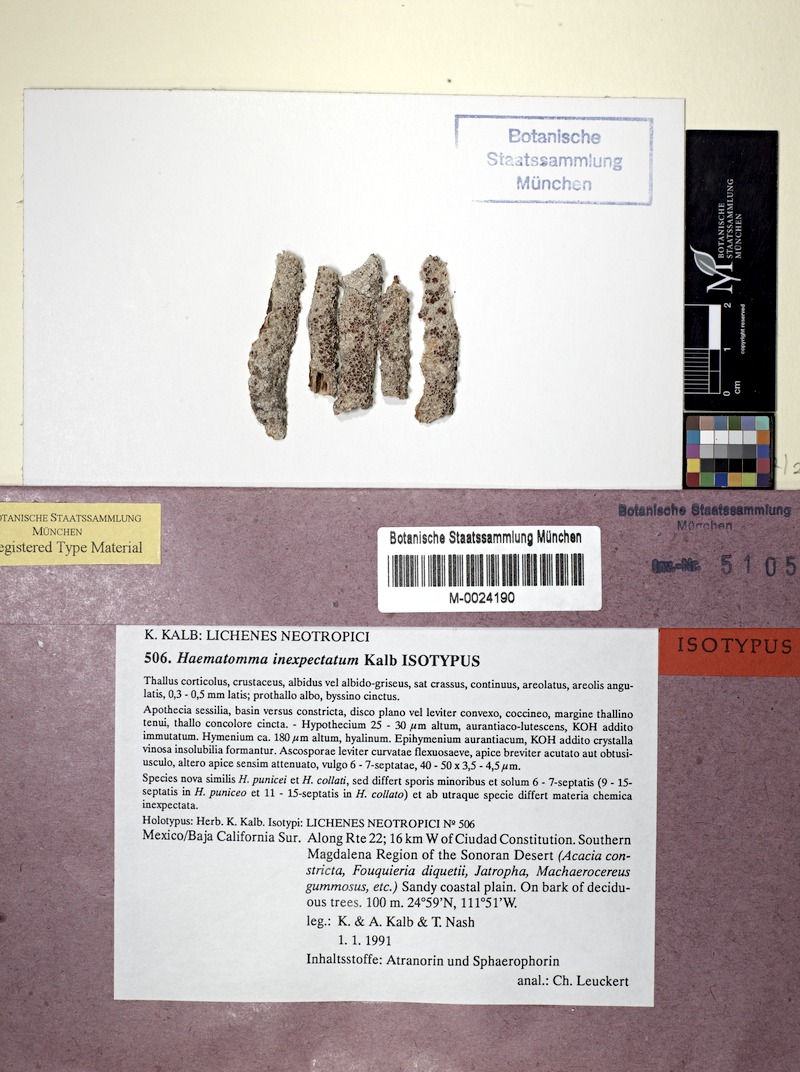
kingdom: Fungi
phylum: Ascomycota
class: Lecanoromycetes
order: Lecanorales
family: Haematommataceae
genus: Haematomma
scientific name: Haematomma inexpectatum
